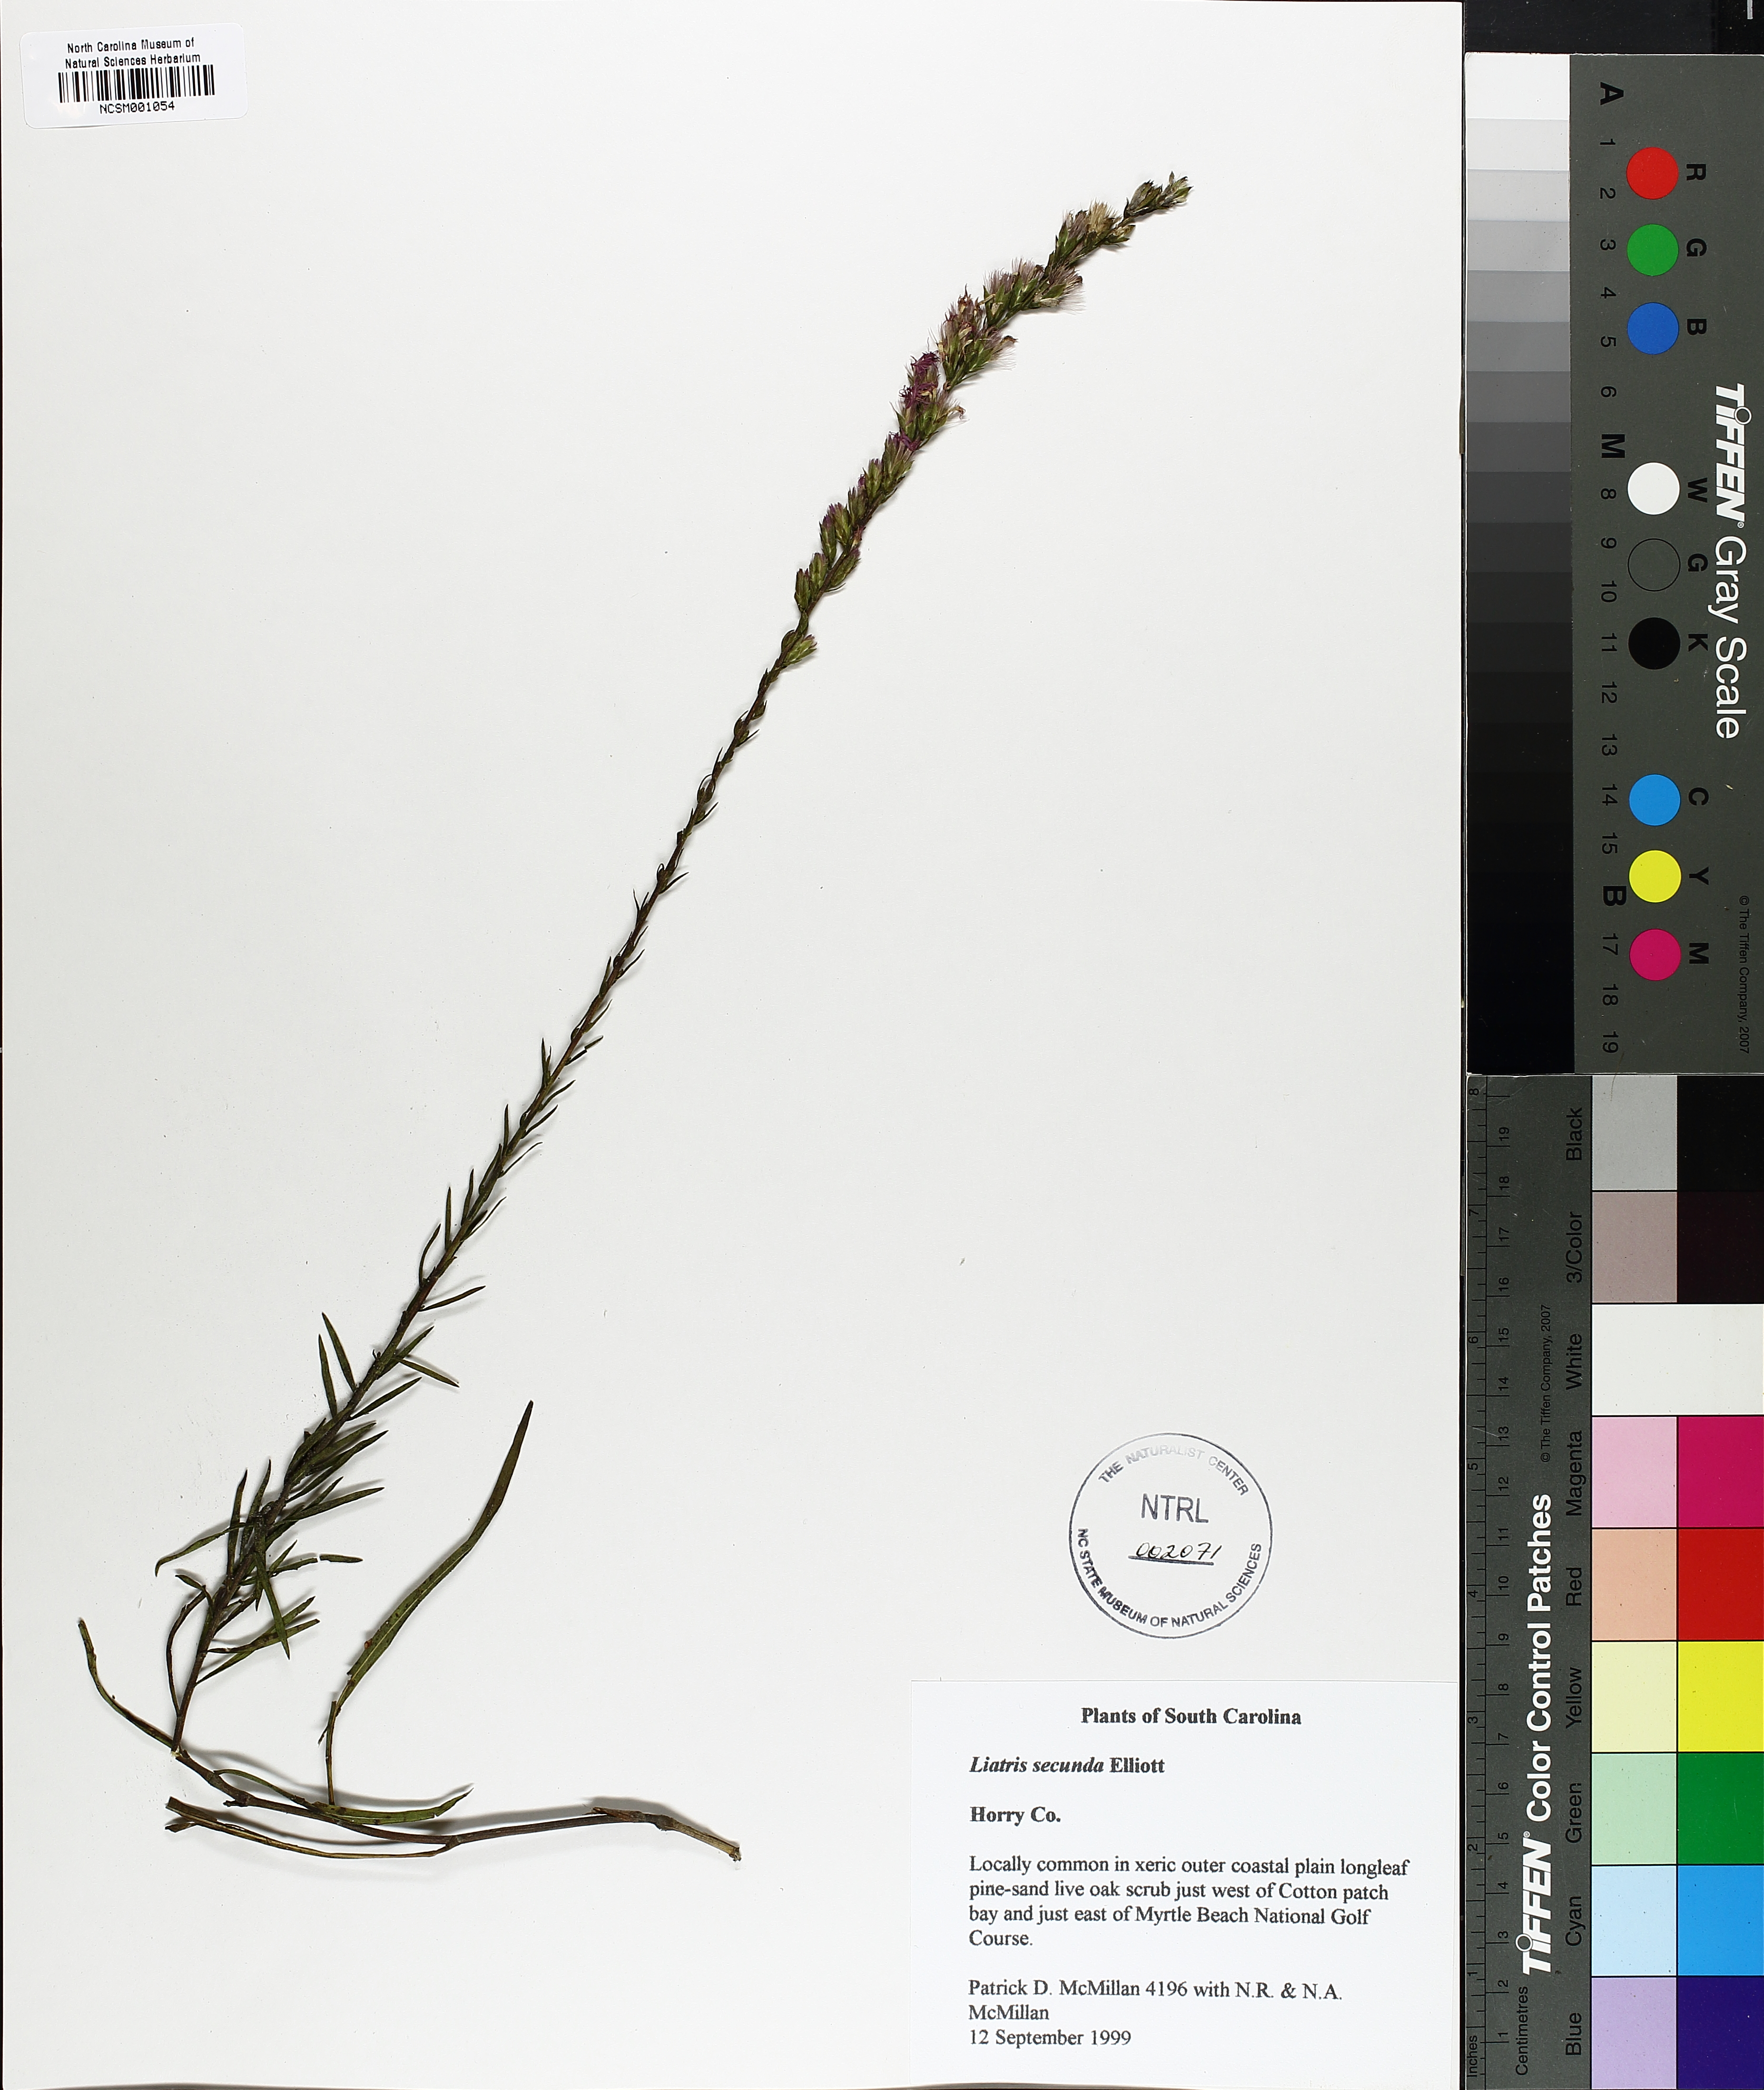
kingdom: Plantae
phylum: Tracheophyta
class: Magnoliopsida
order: Asterales
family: Asteraceae
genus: Liatris
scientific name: Liatris pauciflora
